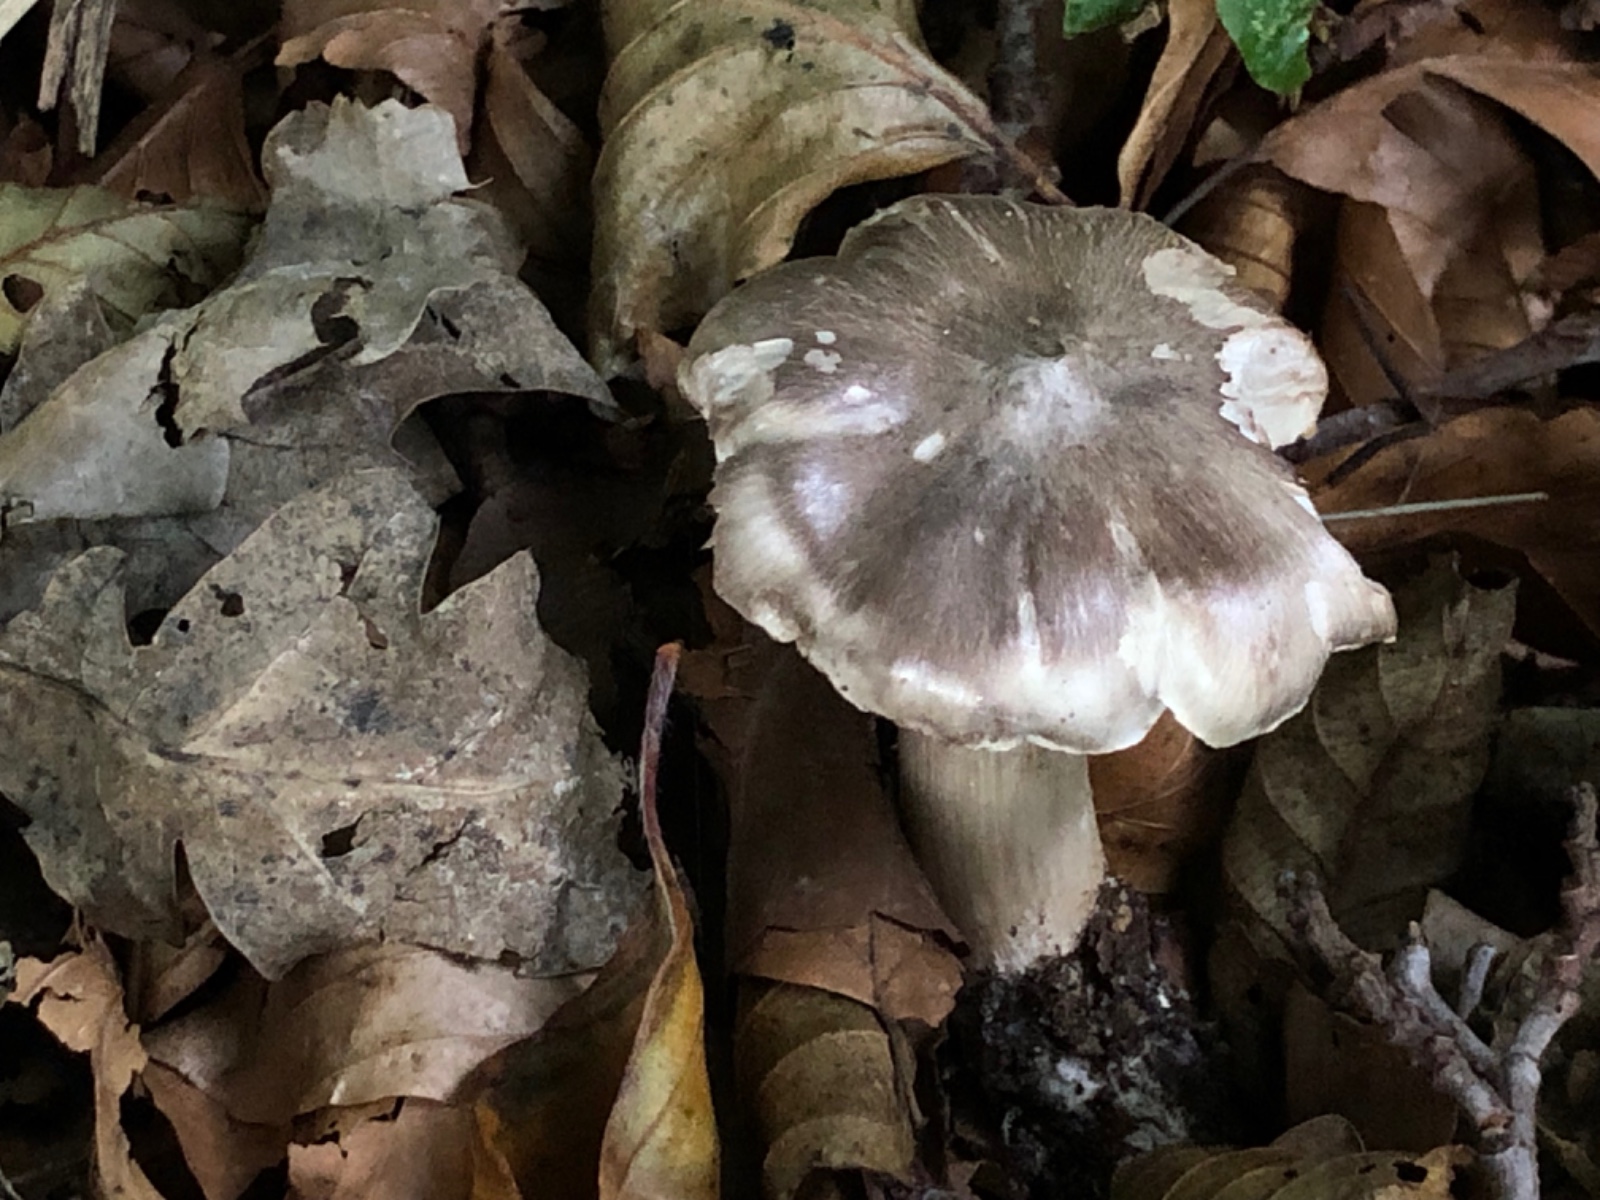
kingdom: Fungi
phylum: Basidiomycota
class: Agaricomycetes
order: Agaricales
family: Tricholomataceae
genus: Tricholoma
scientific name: Tricholoma sciodes
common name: stribet ridderhat
